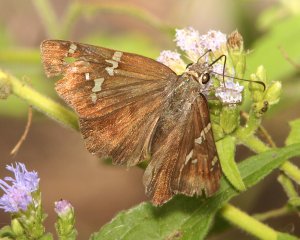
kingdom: Animalia
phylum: Arthropoda
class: Insecta
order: Lepidoptera
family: Hesperiidae
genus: Cabares
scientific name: Cabares potrillo
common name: Potrillo Skipper
